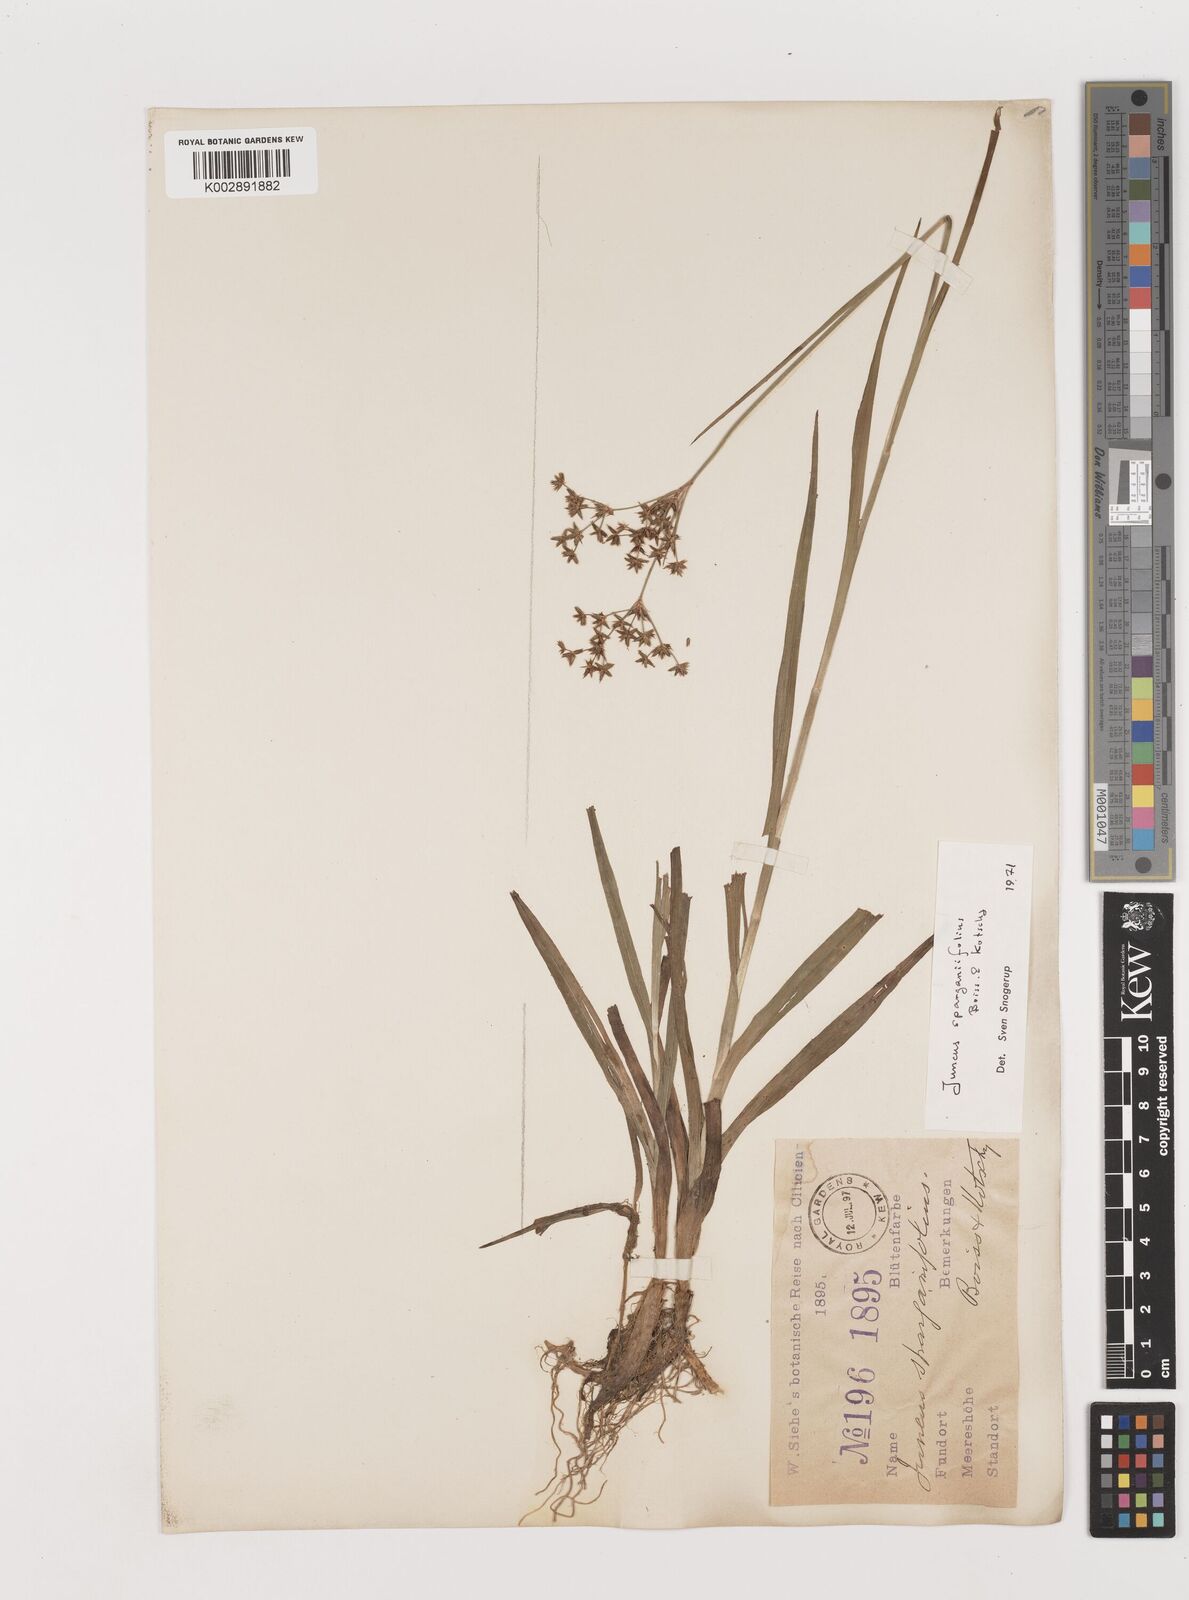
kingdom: Plantae
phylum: Tracheophyta
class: Liliopsida
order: Poales
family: Juncaceae
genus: Juncus
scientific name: Juncus sparganiifolius
